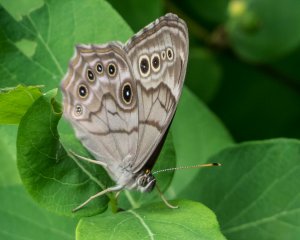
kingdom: Animalia
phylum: Arthropoda
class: Insecta
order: Lepidoptera
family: Nymphalidae
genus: Lethe
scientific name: Lethe anthedon
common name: Northern Pearly-Eye
